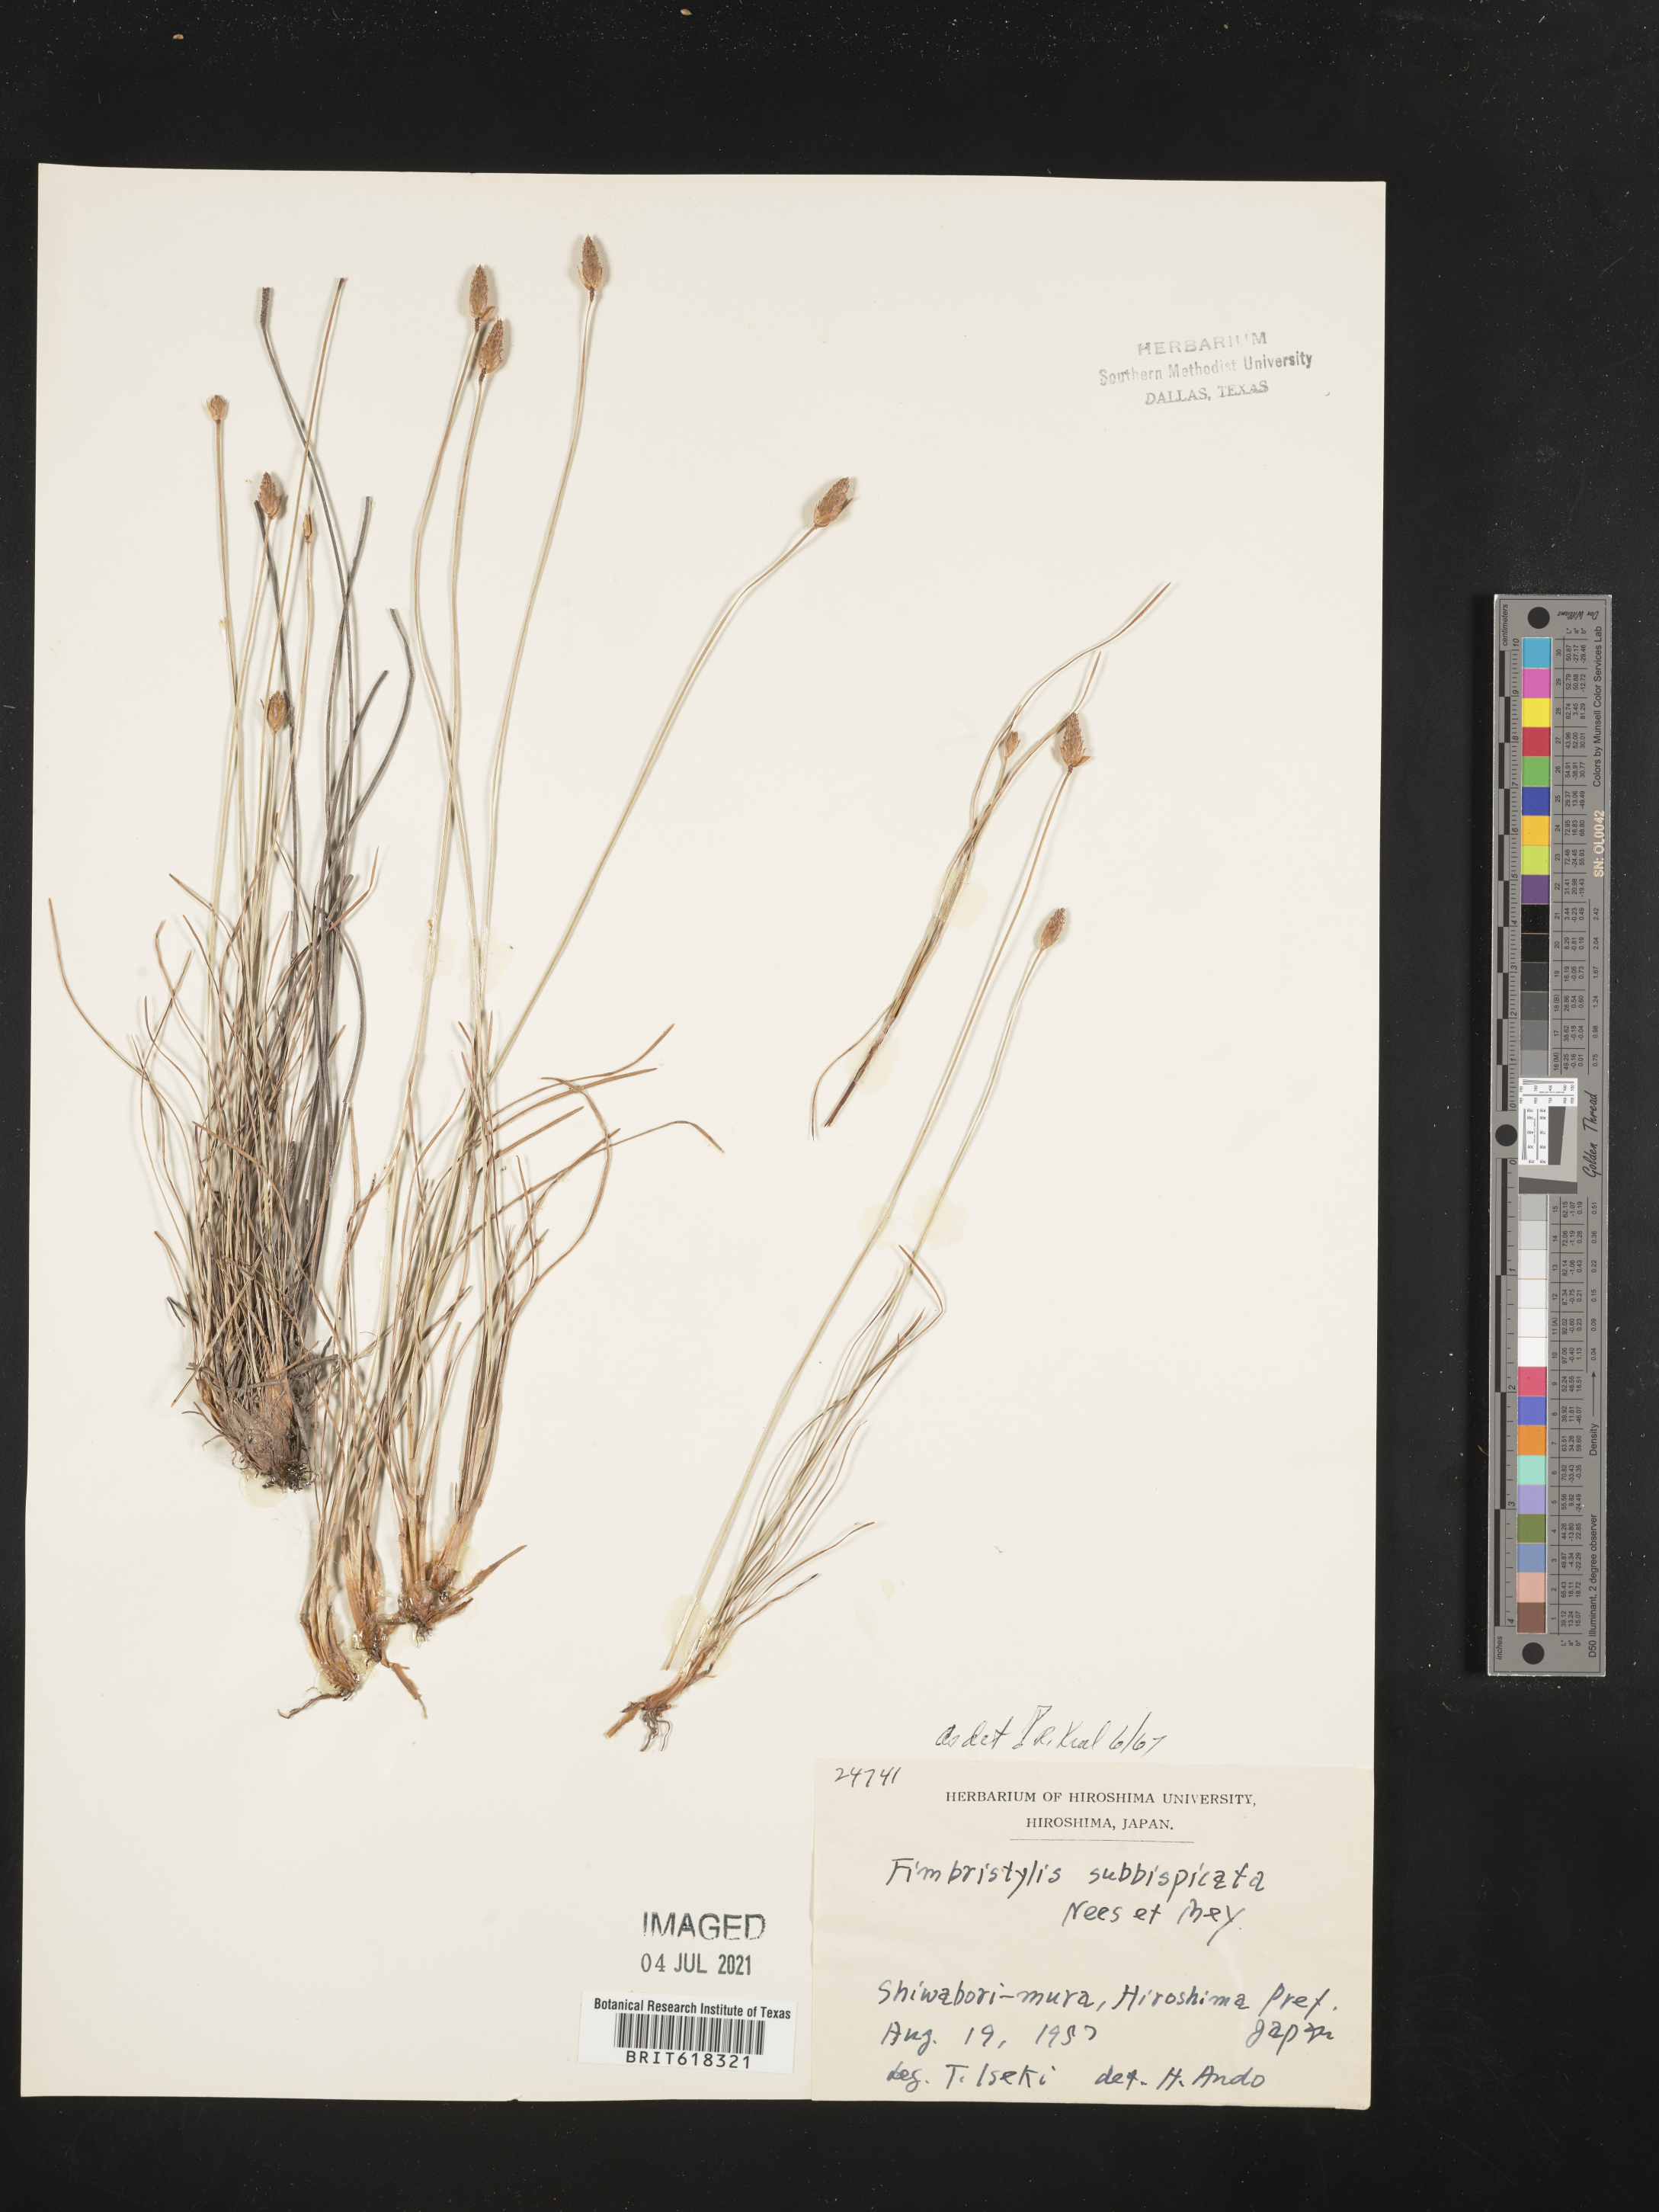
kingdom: Plantae
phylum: Tracheophyta
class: Liliopsida
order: Poales
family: Cyperaceae
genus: Fimbristylis
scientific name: Fimbristylis tristachya
